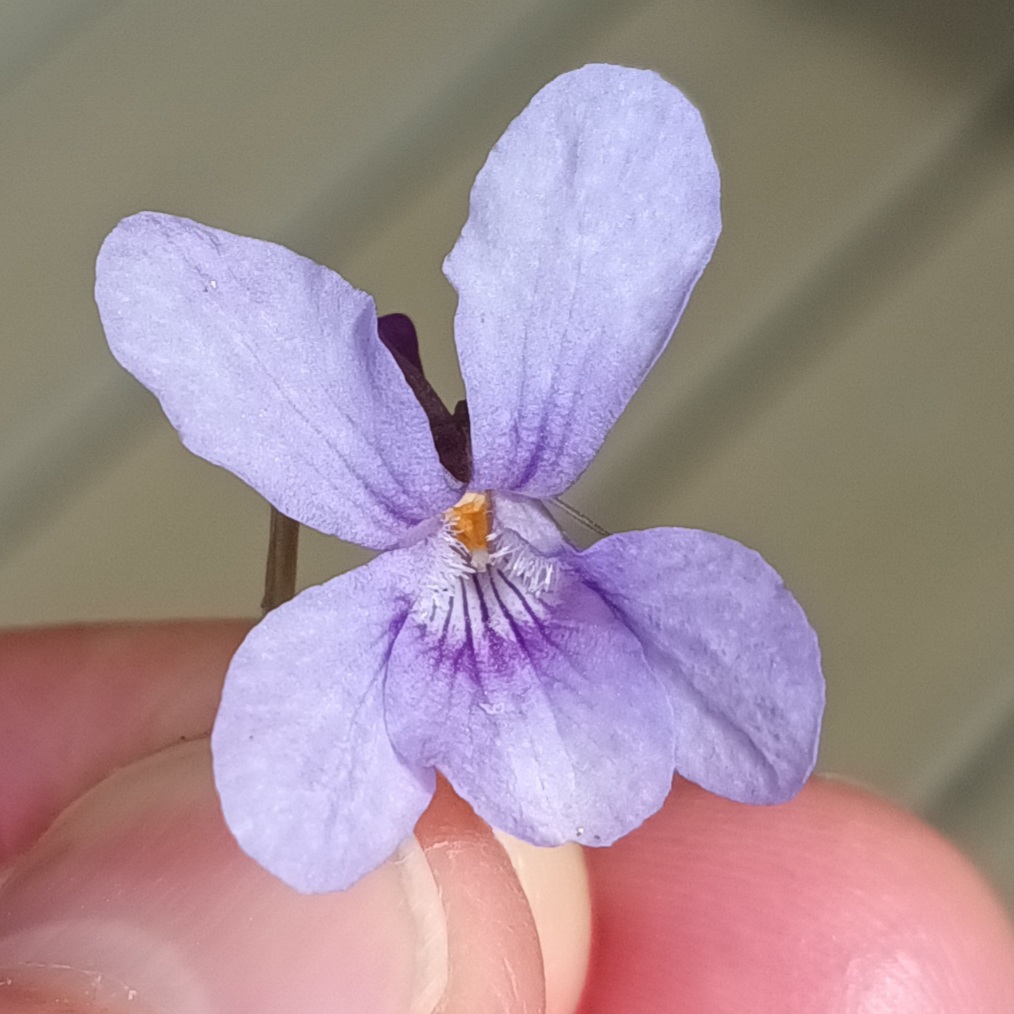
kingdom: Plantae
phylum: Tracheophyta
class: Magnoliopsida
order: Malpighiales
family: Violaceae
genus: Viola
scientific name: Viola reichenbachiana
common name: Skov-viol
